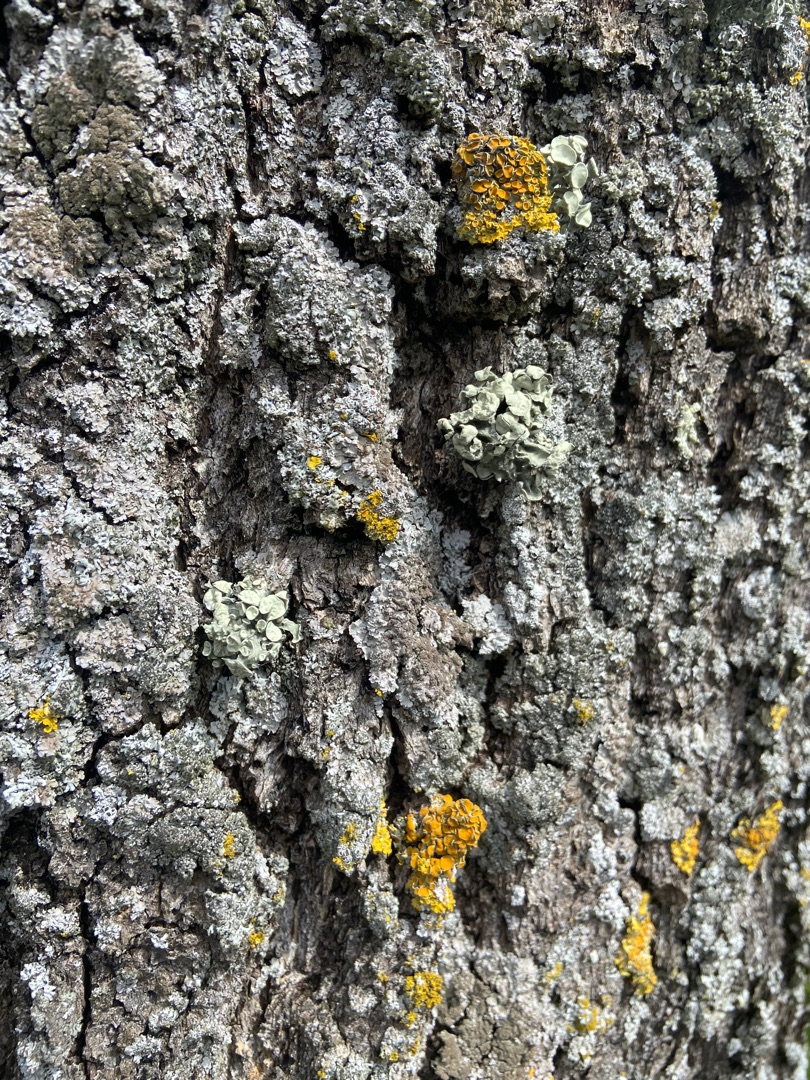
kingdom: Fungi
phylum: Ascomycota
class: Lecanoromycetes
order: Lecanorales
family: Ramalinaceae
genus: Ramalina
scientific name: Ramalina fastigiata
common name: Tue-grenlav
